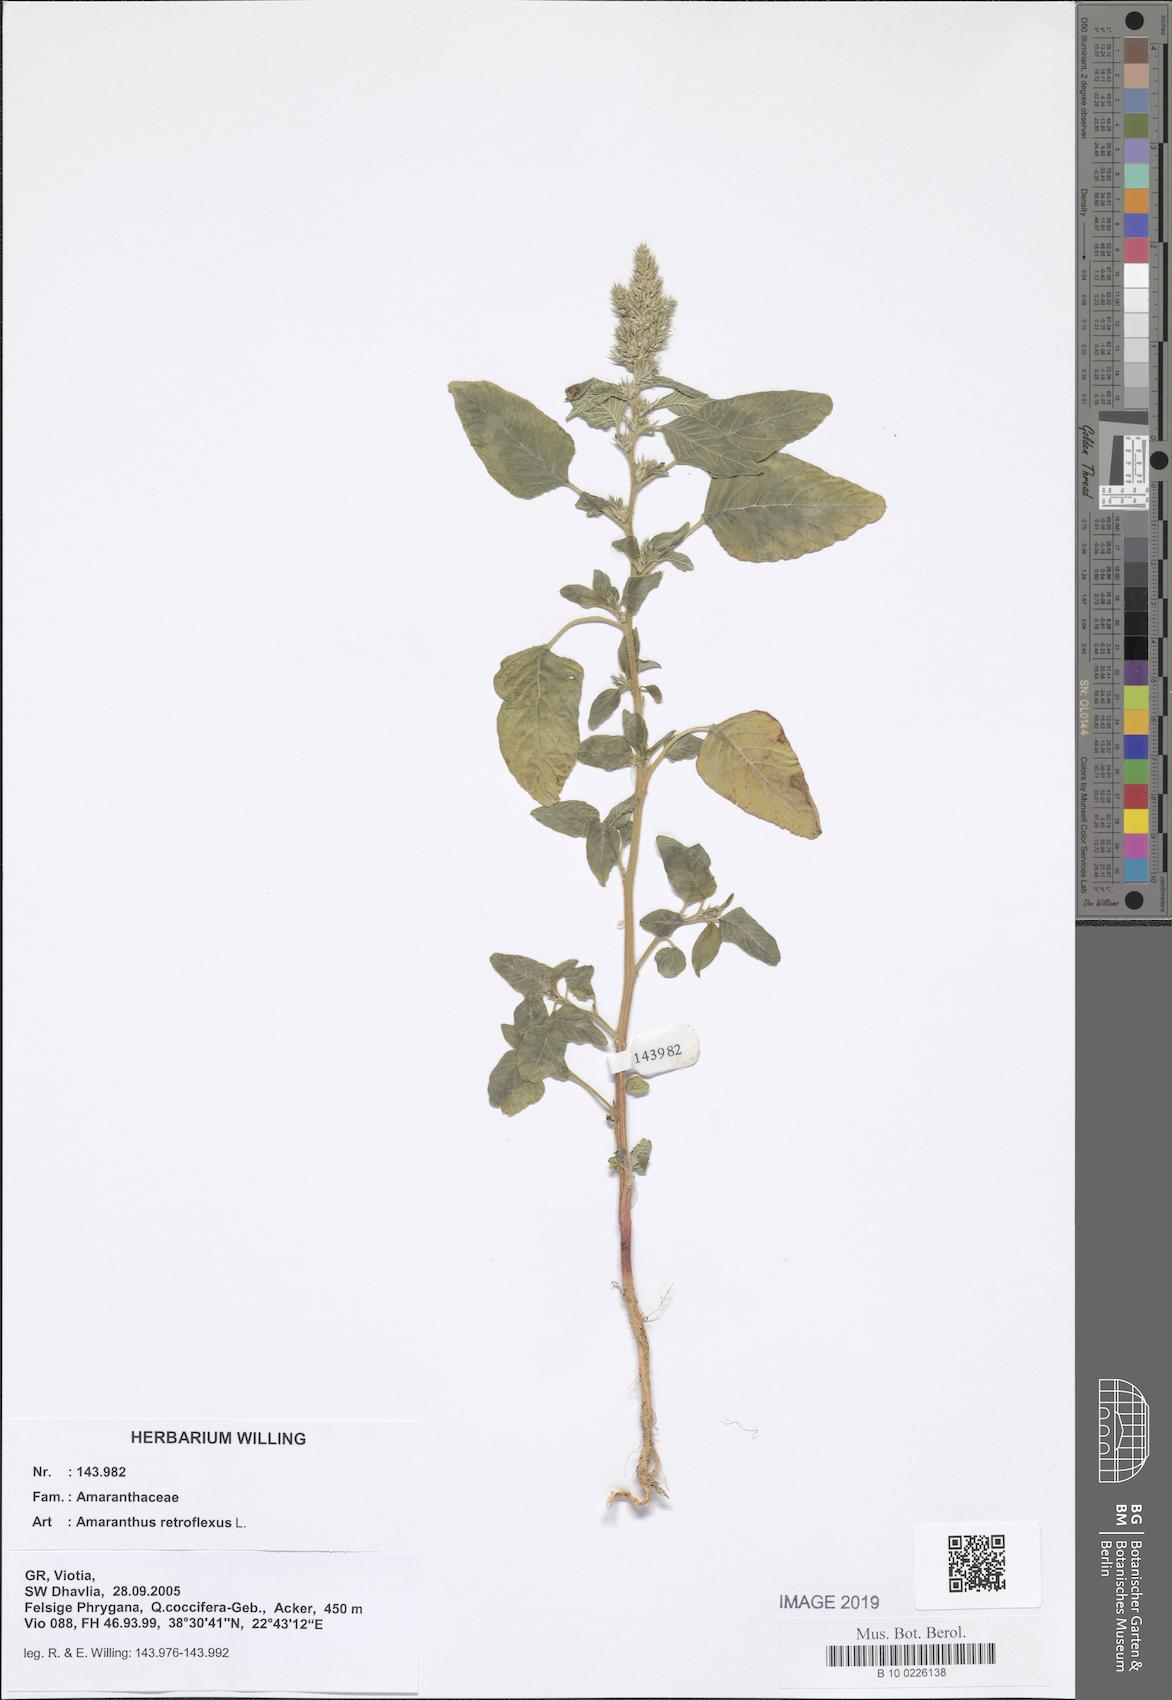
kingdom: Plantae
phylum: Tracheophyta
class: Magnoliopsida
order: Caryophyllales
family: Amaranthaceae
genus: Amaranthus
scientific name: Amaranthus retroflexus
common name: Redroot amaranth
